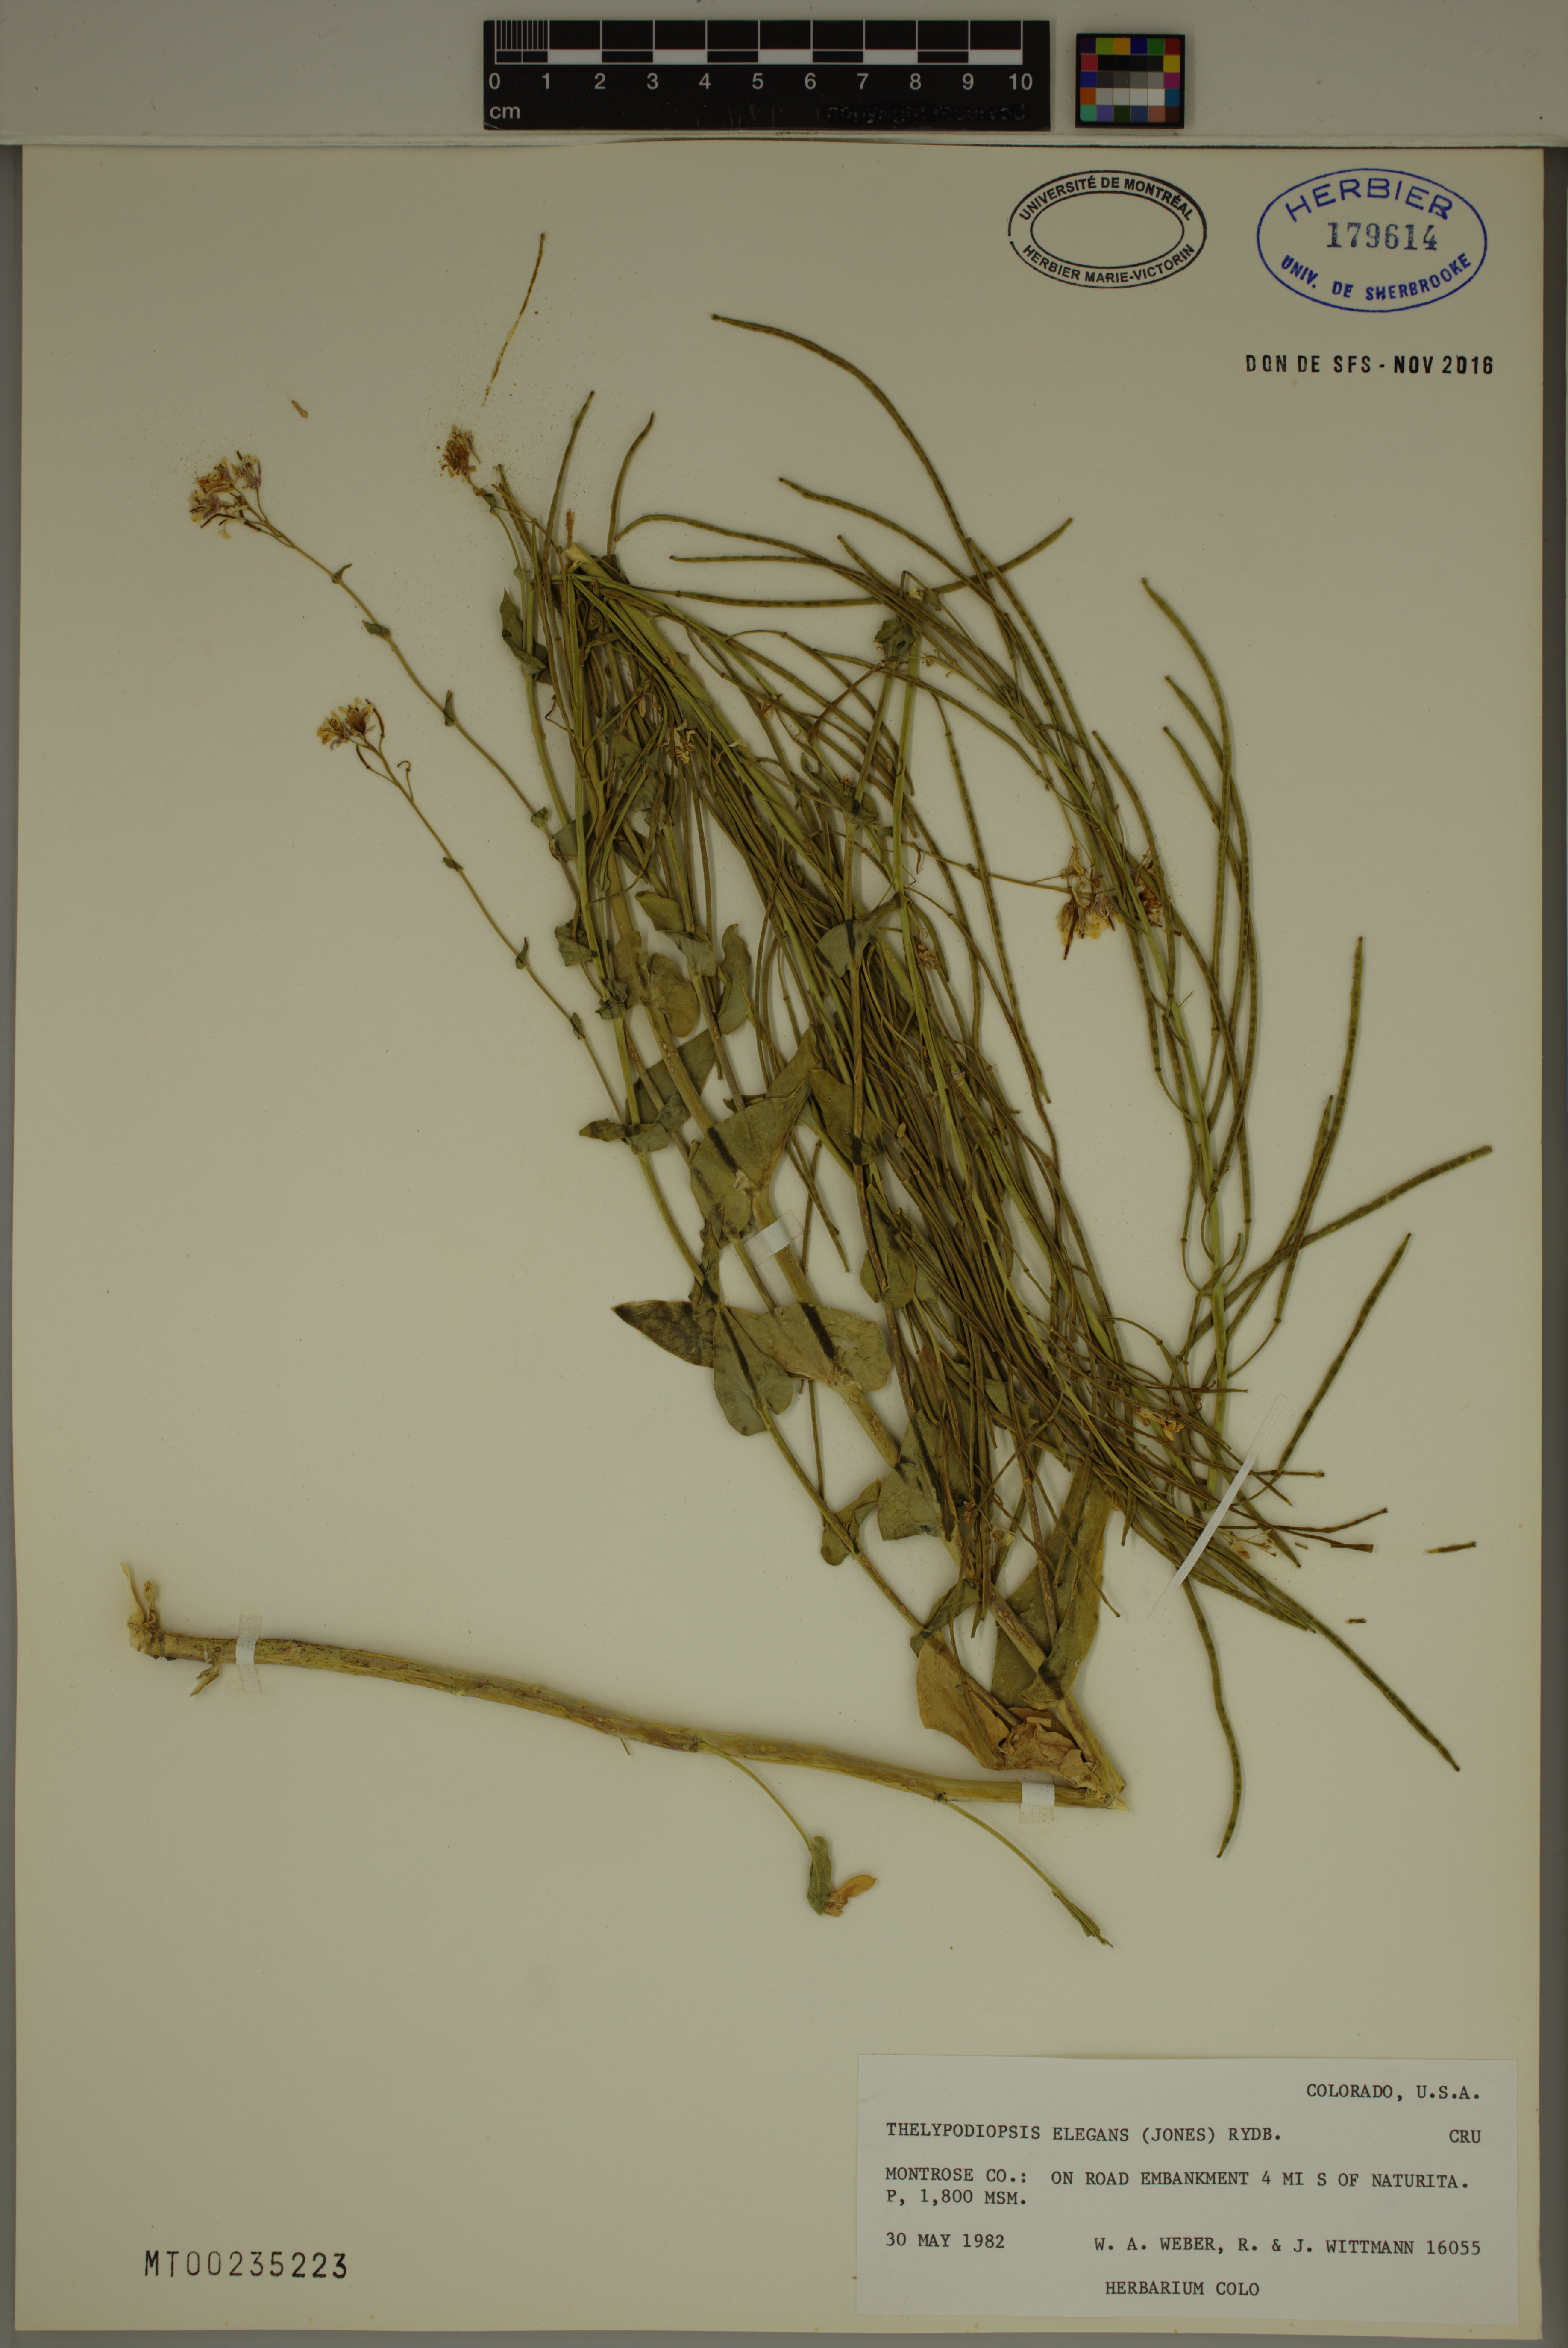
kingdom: Plantae
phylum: Tracheophyta
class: Magnoliopsida
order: Brassicales
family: Brassicaceae
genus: Thelypodiopsis
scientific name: Thelypodiopsis elegans
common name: Elegant thelypody
